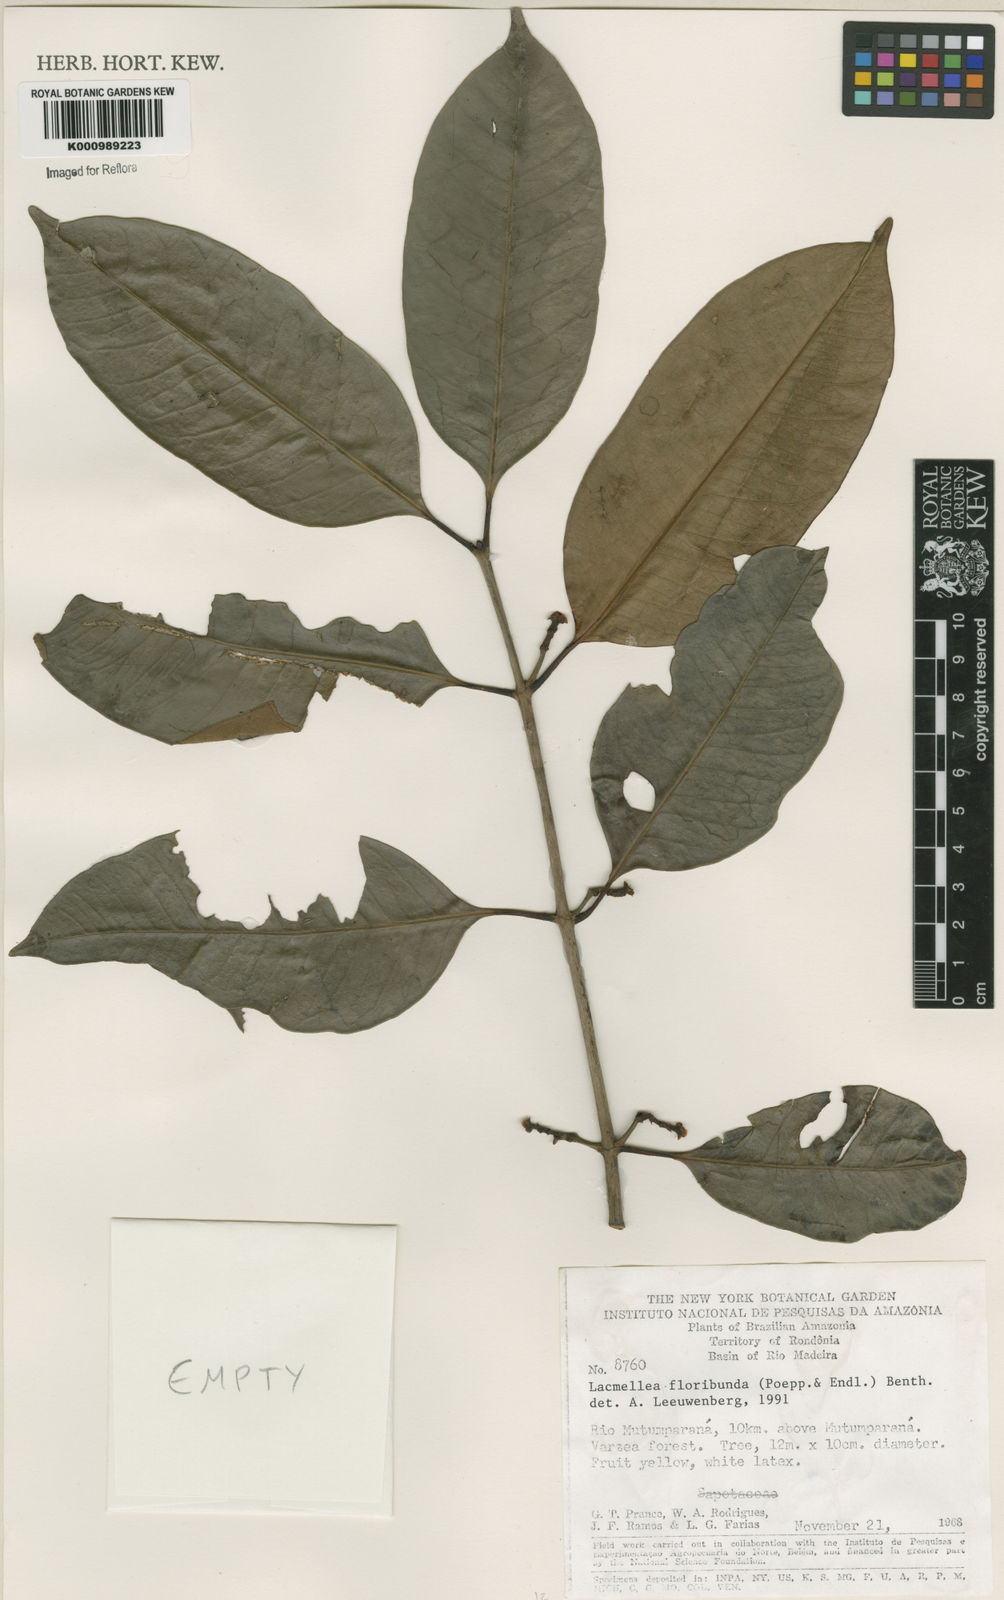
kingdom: Plantae
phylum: Tracheophyta
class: Magnoliopsida
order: Gentianales
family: Apocynaceae
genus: Lacmellea
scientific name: Lacmellea floribunda
